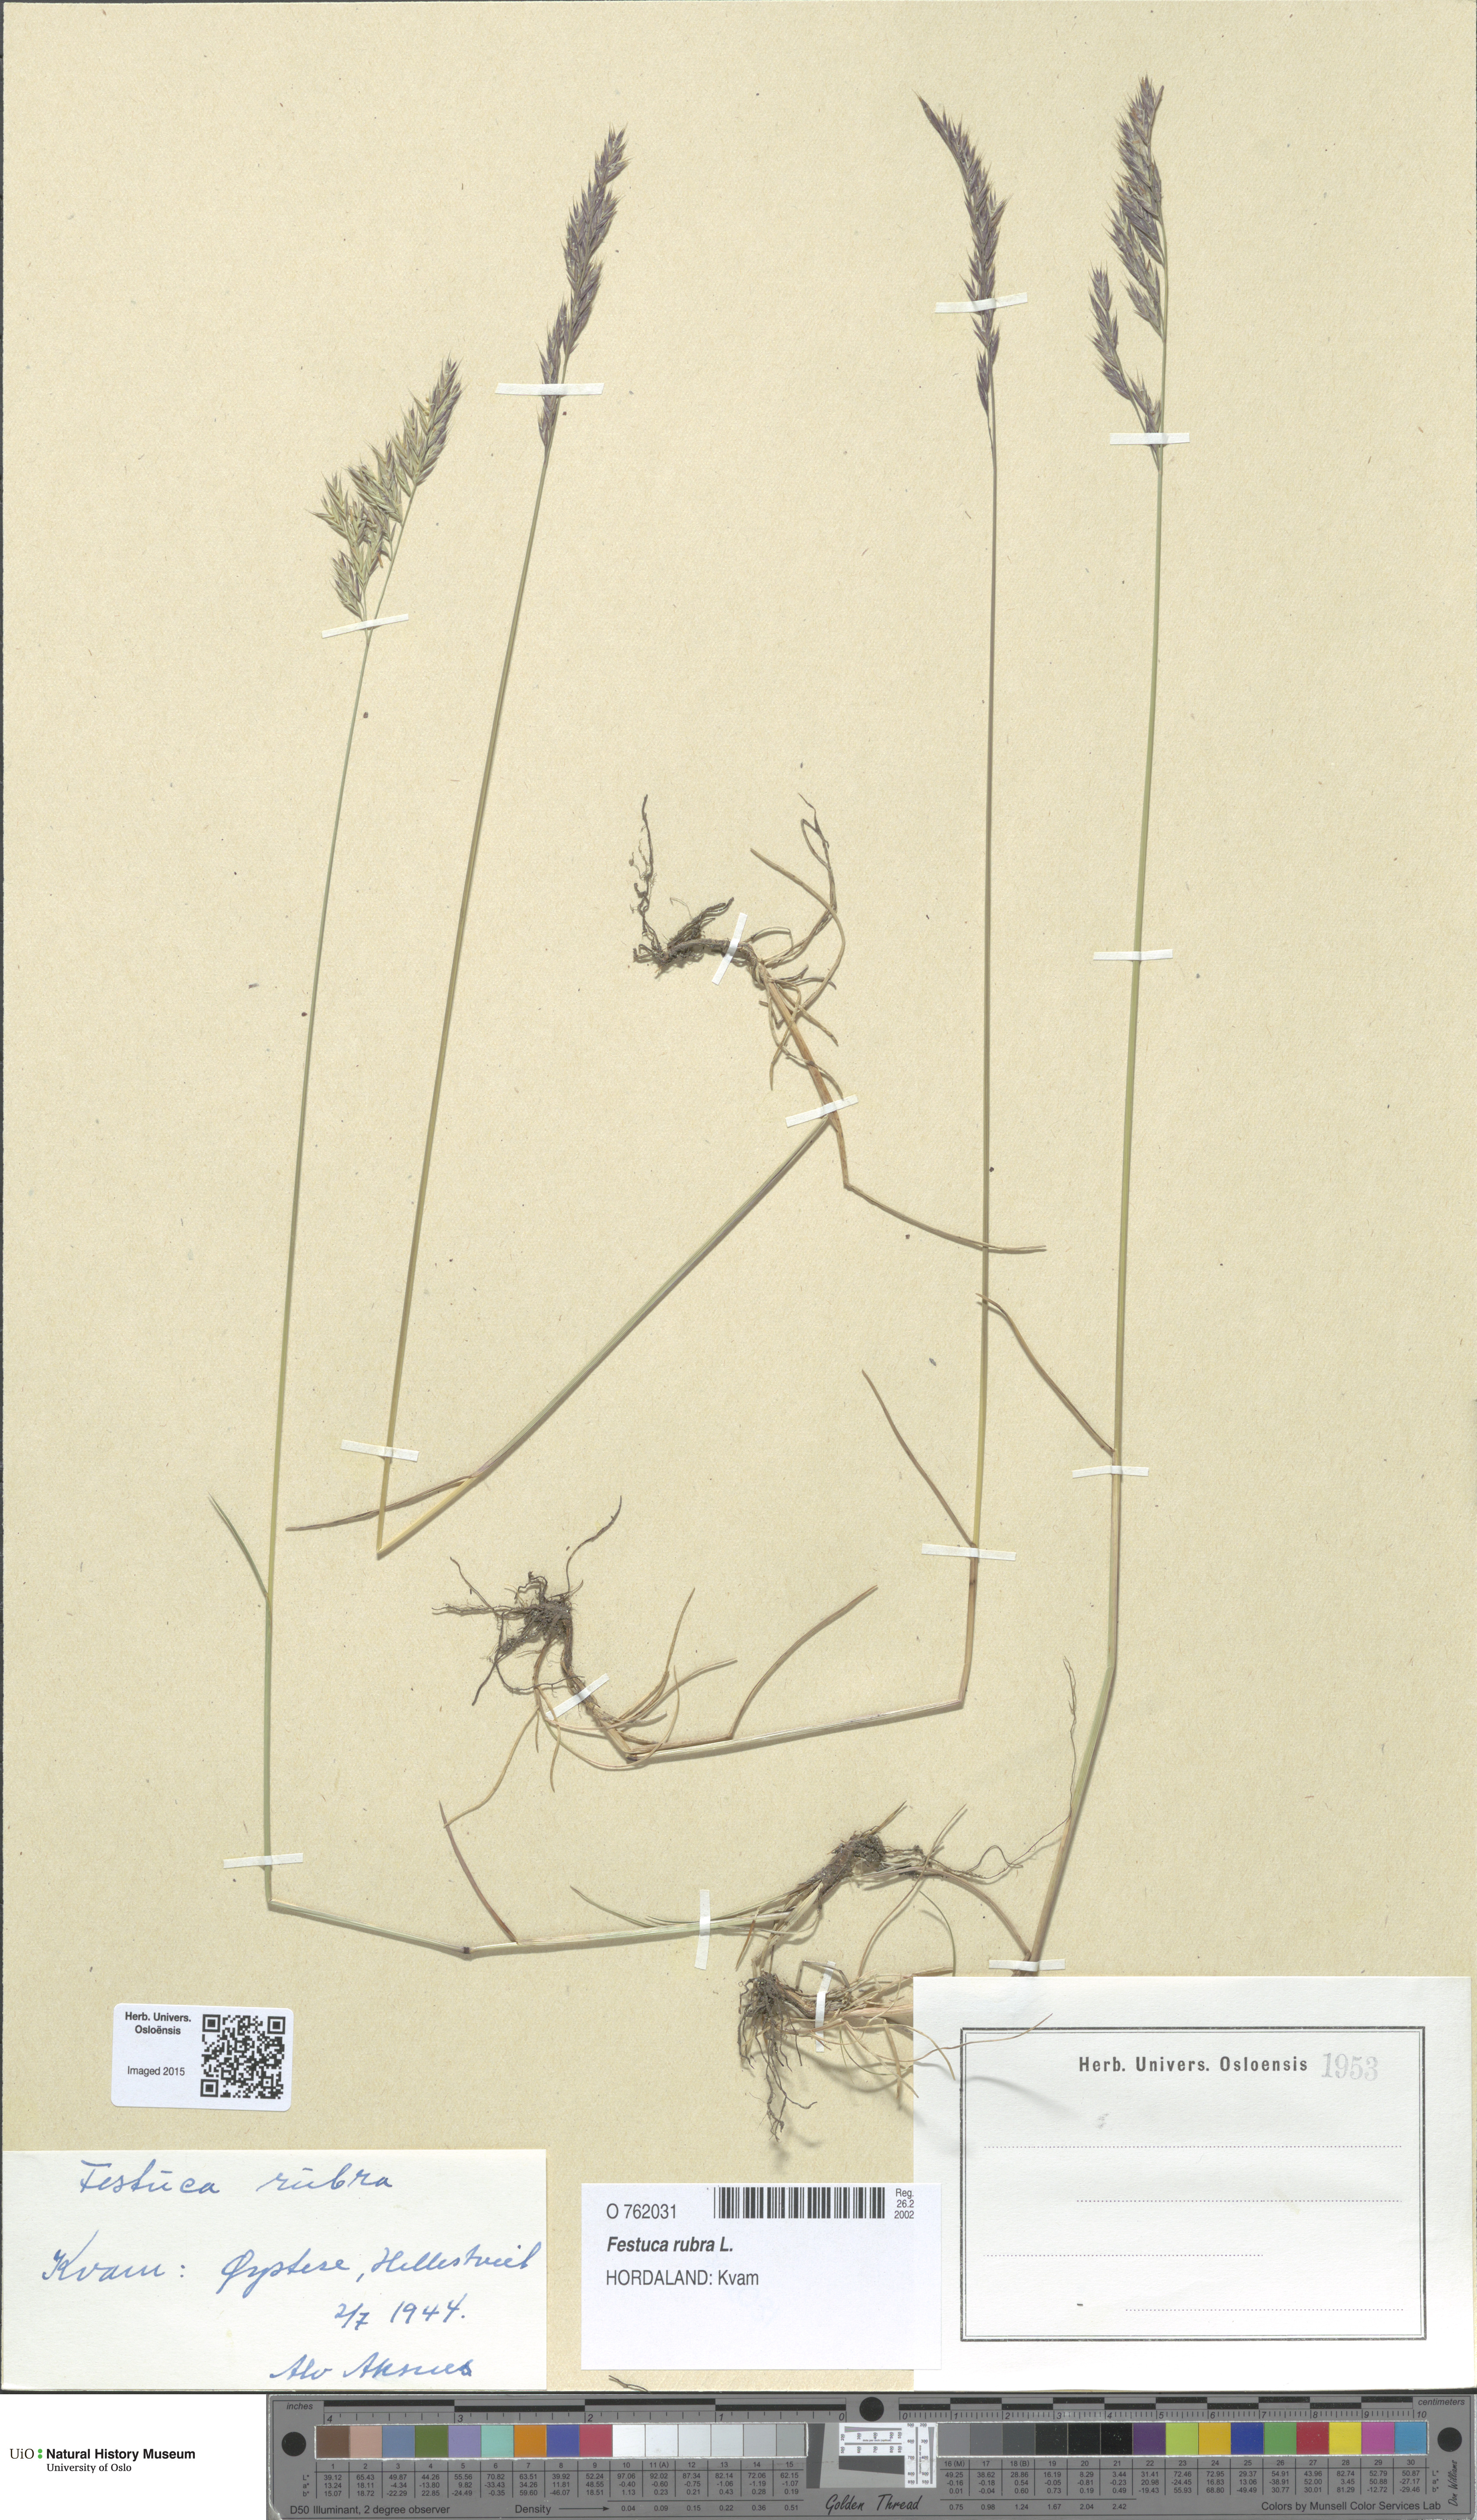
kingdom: Plantae
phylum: Tracheophyta
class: Liliopsida
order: Poales
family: Poaceae
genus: Festuca
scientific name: Festuca rubra
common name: Red fescue
